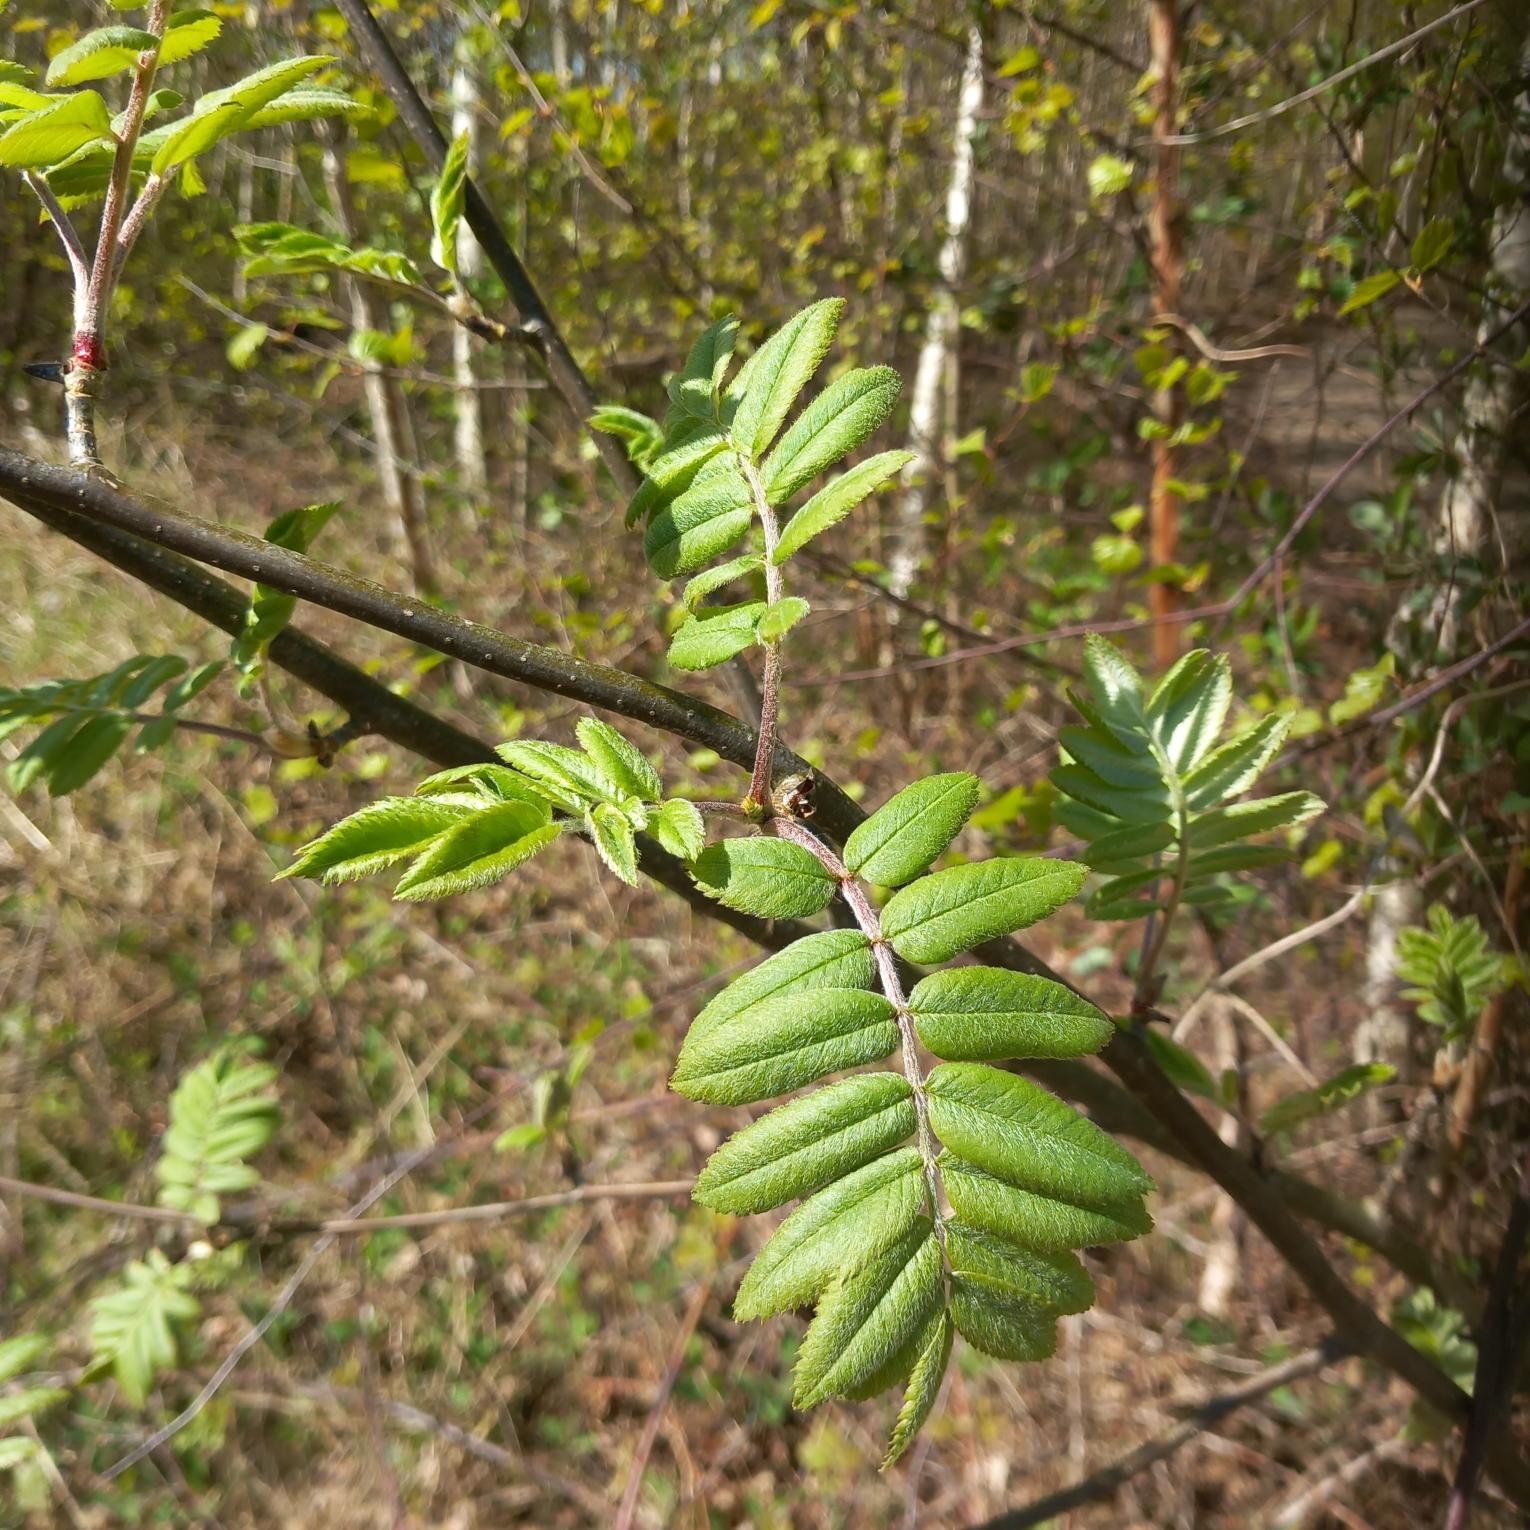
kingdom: Plantae
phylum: Tracheophyta
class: Magnoliopsida
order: Rosales
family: Rosaceae
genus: Sorbus
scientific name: Sorbus aucuparia
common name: Almindelig røn
